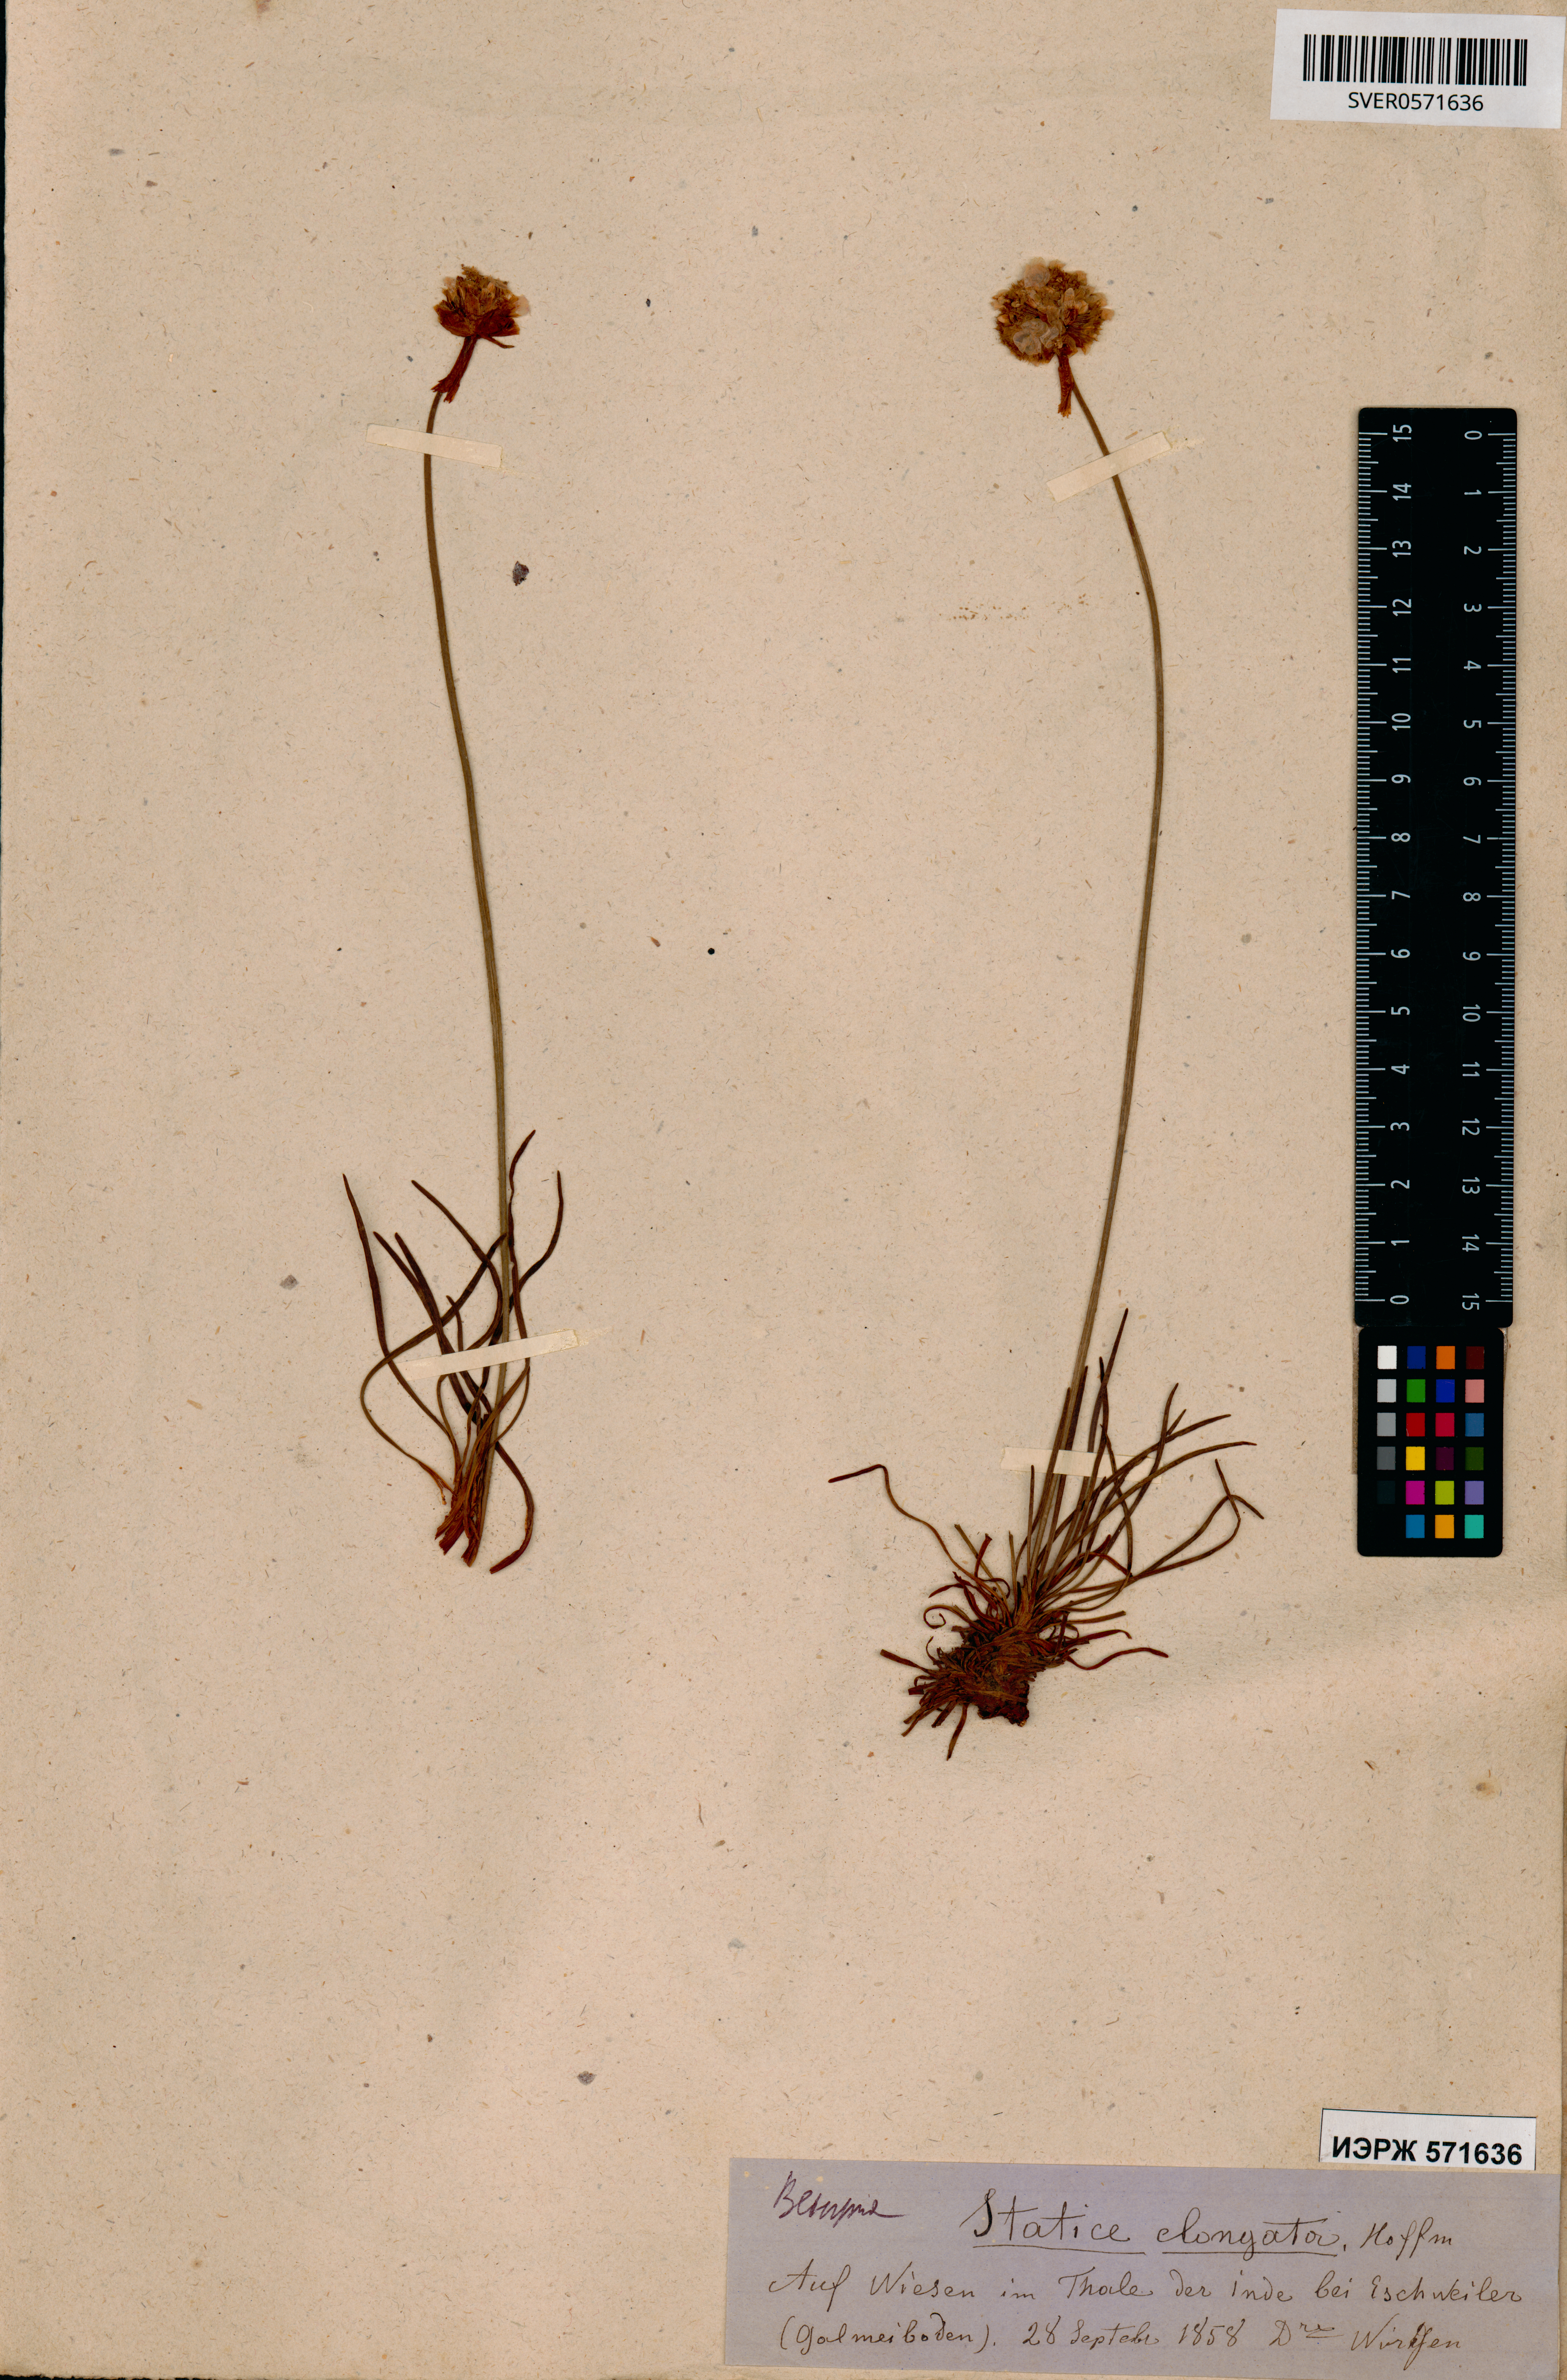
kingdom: Plantae
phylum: Tracheophyta
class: Magnoliopsida
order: Caryophyllales
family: Plumbaginaceae
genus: Armeria
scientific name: Armeria maritima
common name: Thrift
